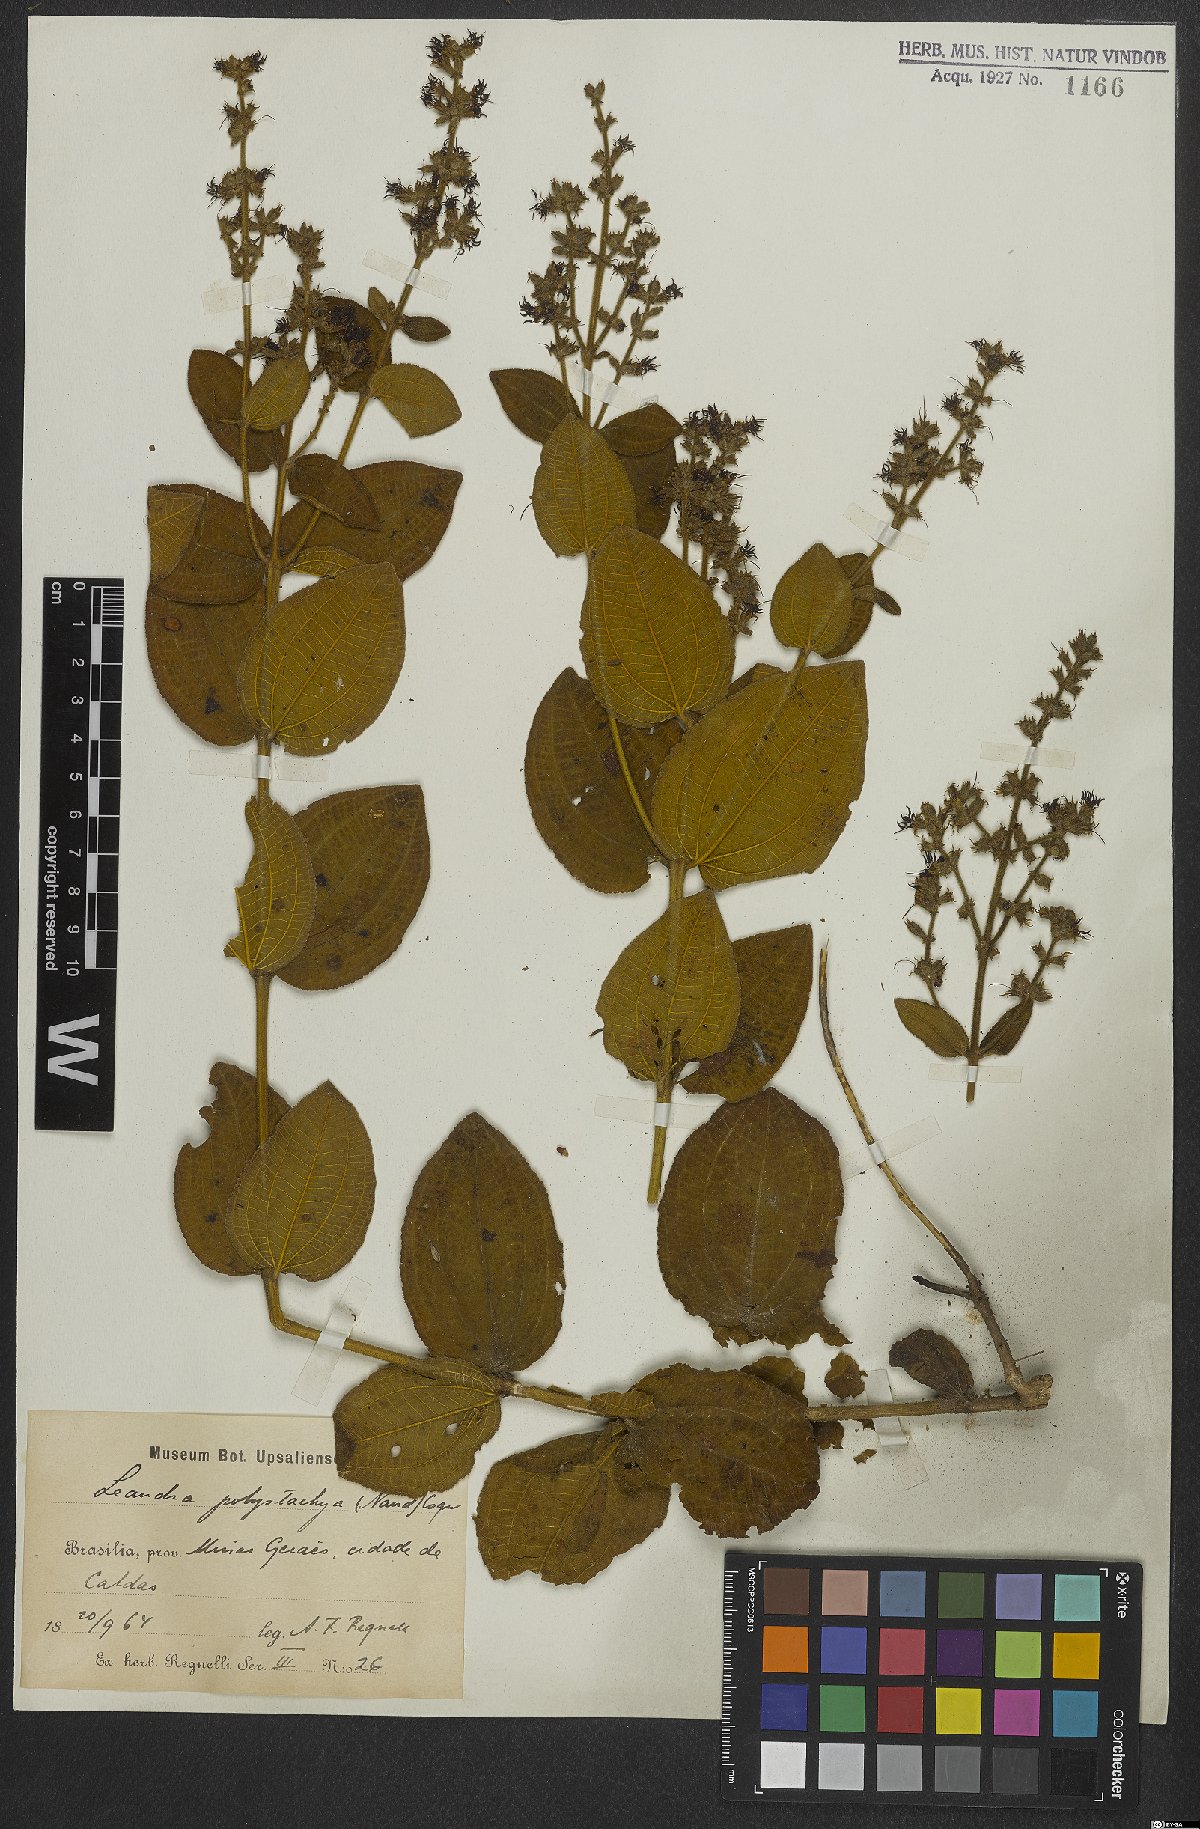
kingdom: Plantae
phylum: Tracheophyta
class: Magnoliopsida
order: Myrtales
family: Melastomataceae
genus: Miconia
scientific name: Miconia polystachya
